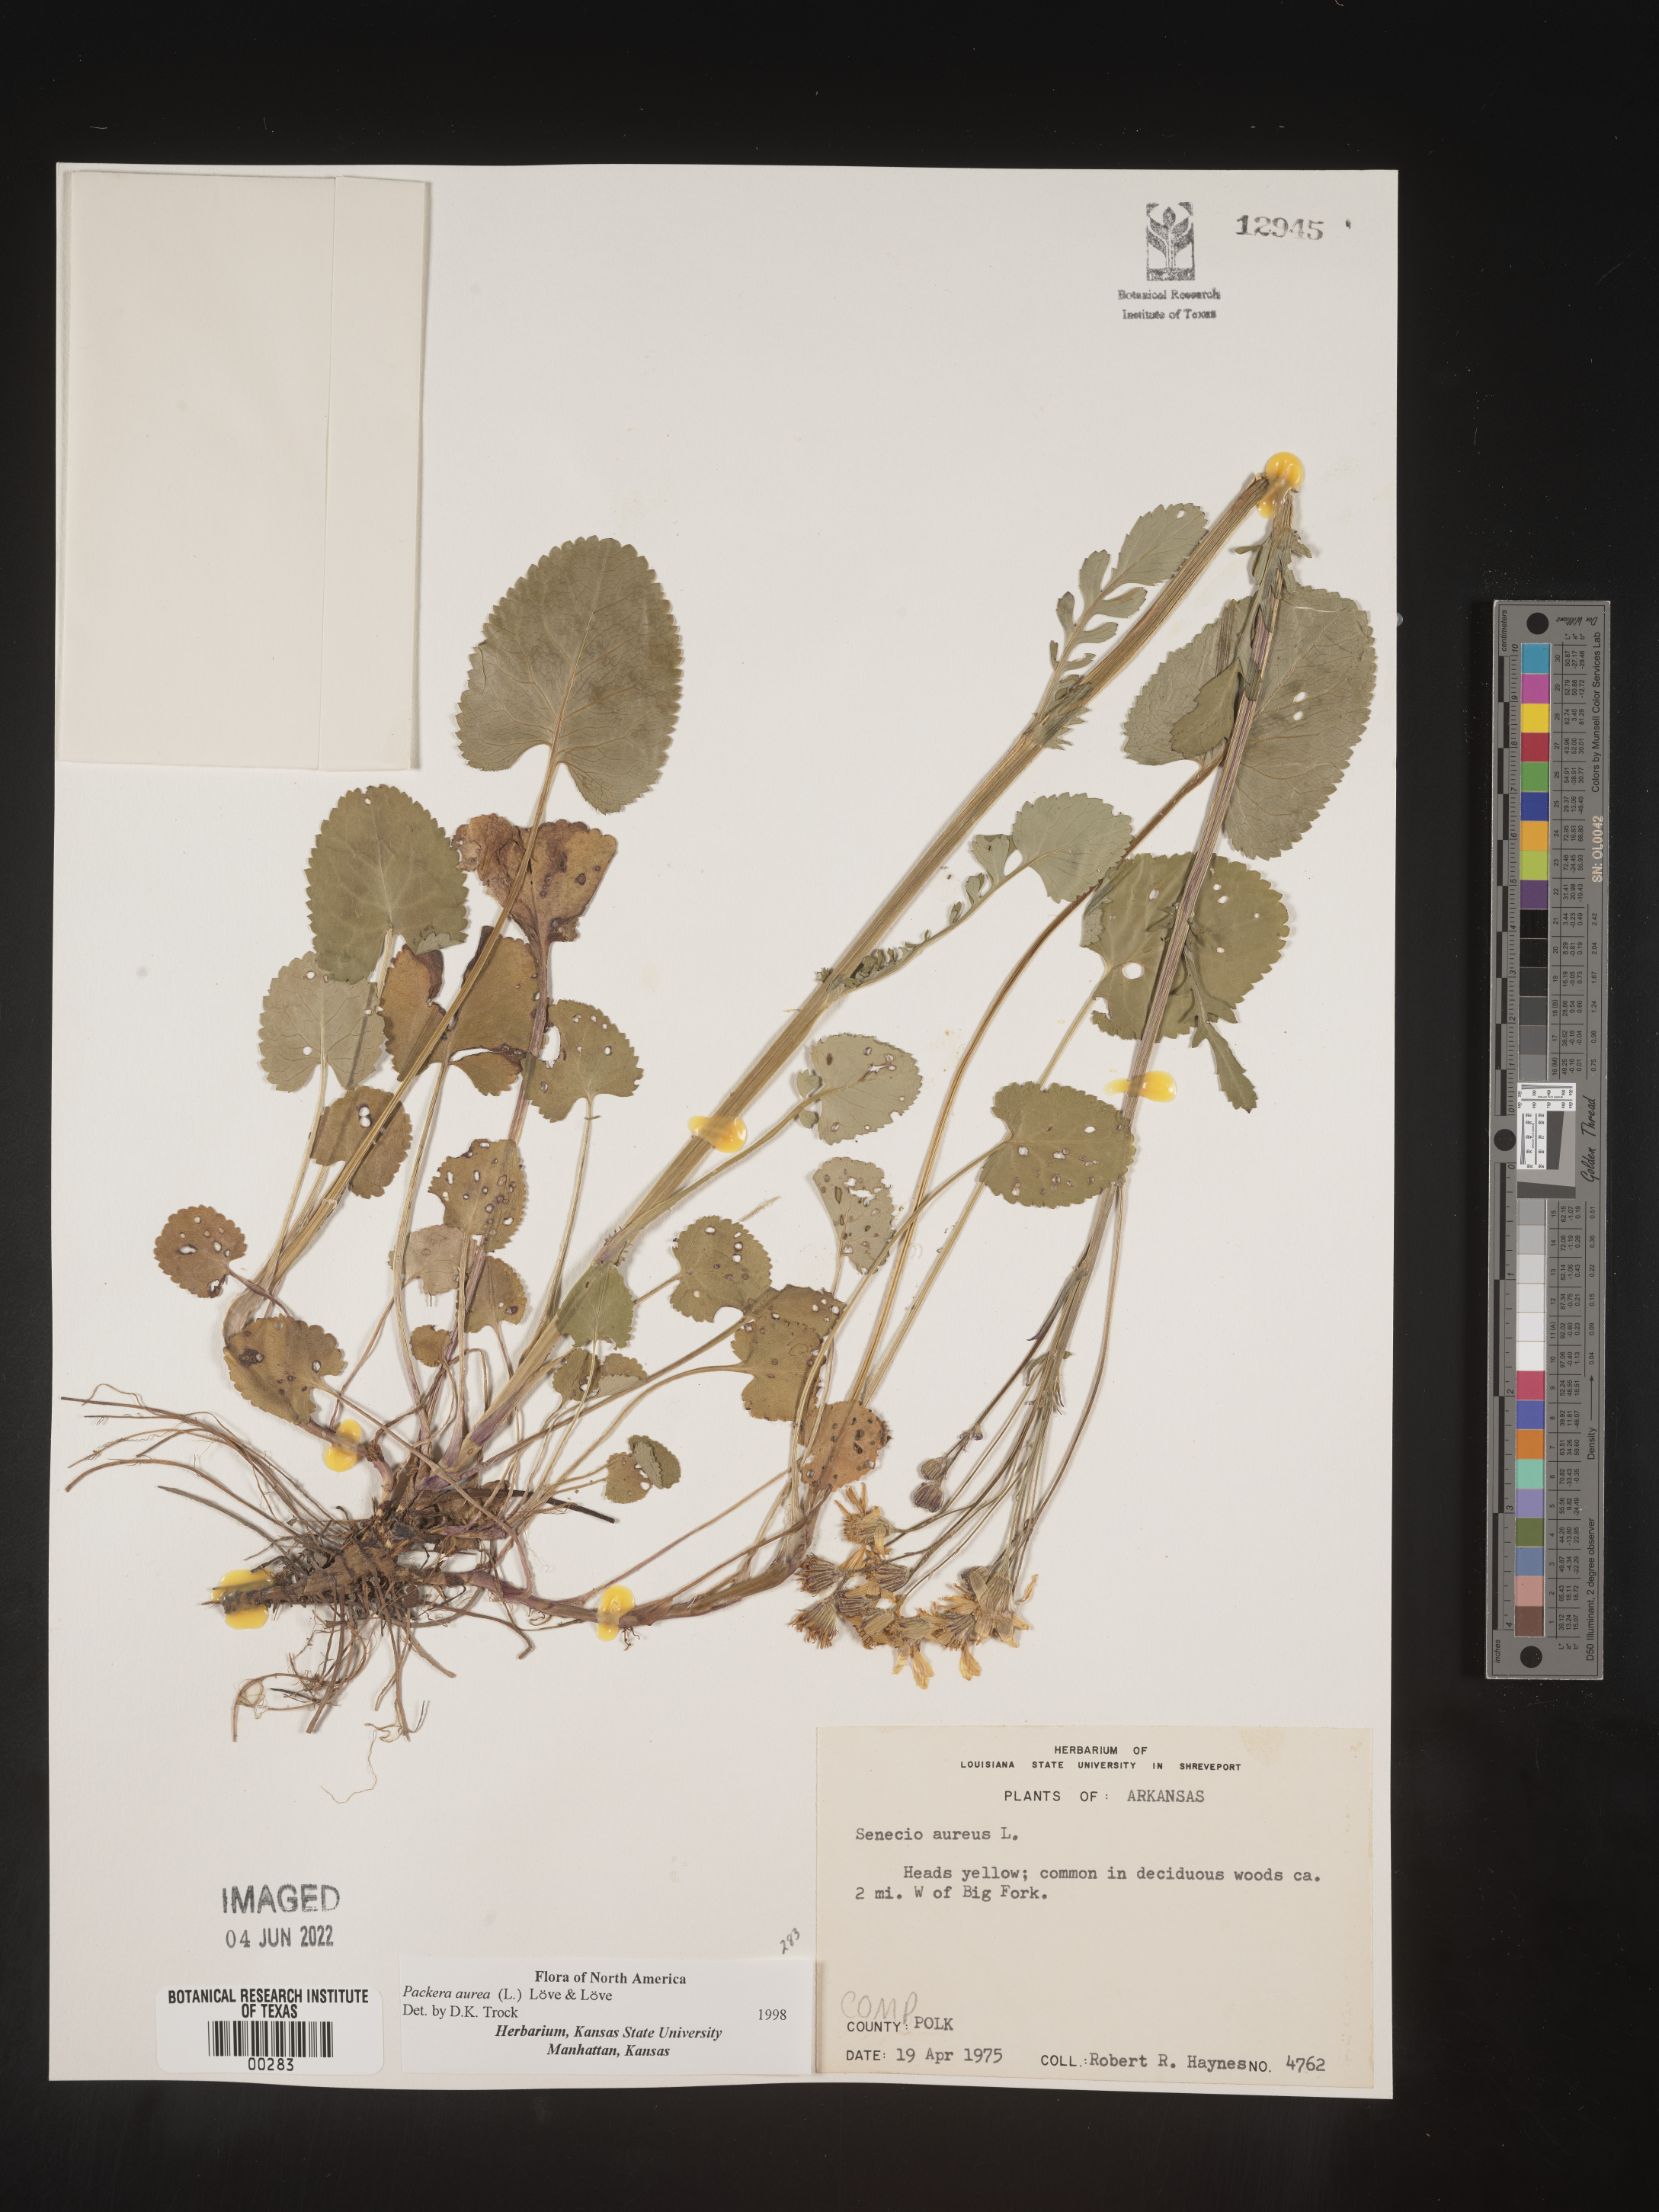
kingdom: Plantae
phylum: Tracheophyta
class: Magnoliopsida
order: Asterales
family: Asteraceae
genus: Packera
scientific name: Packera aurea
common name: Golden groundsel
